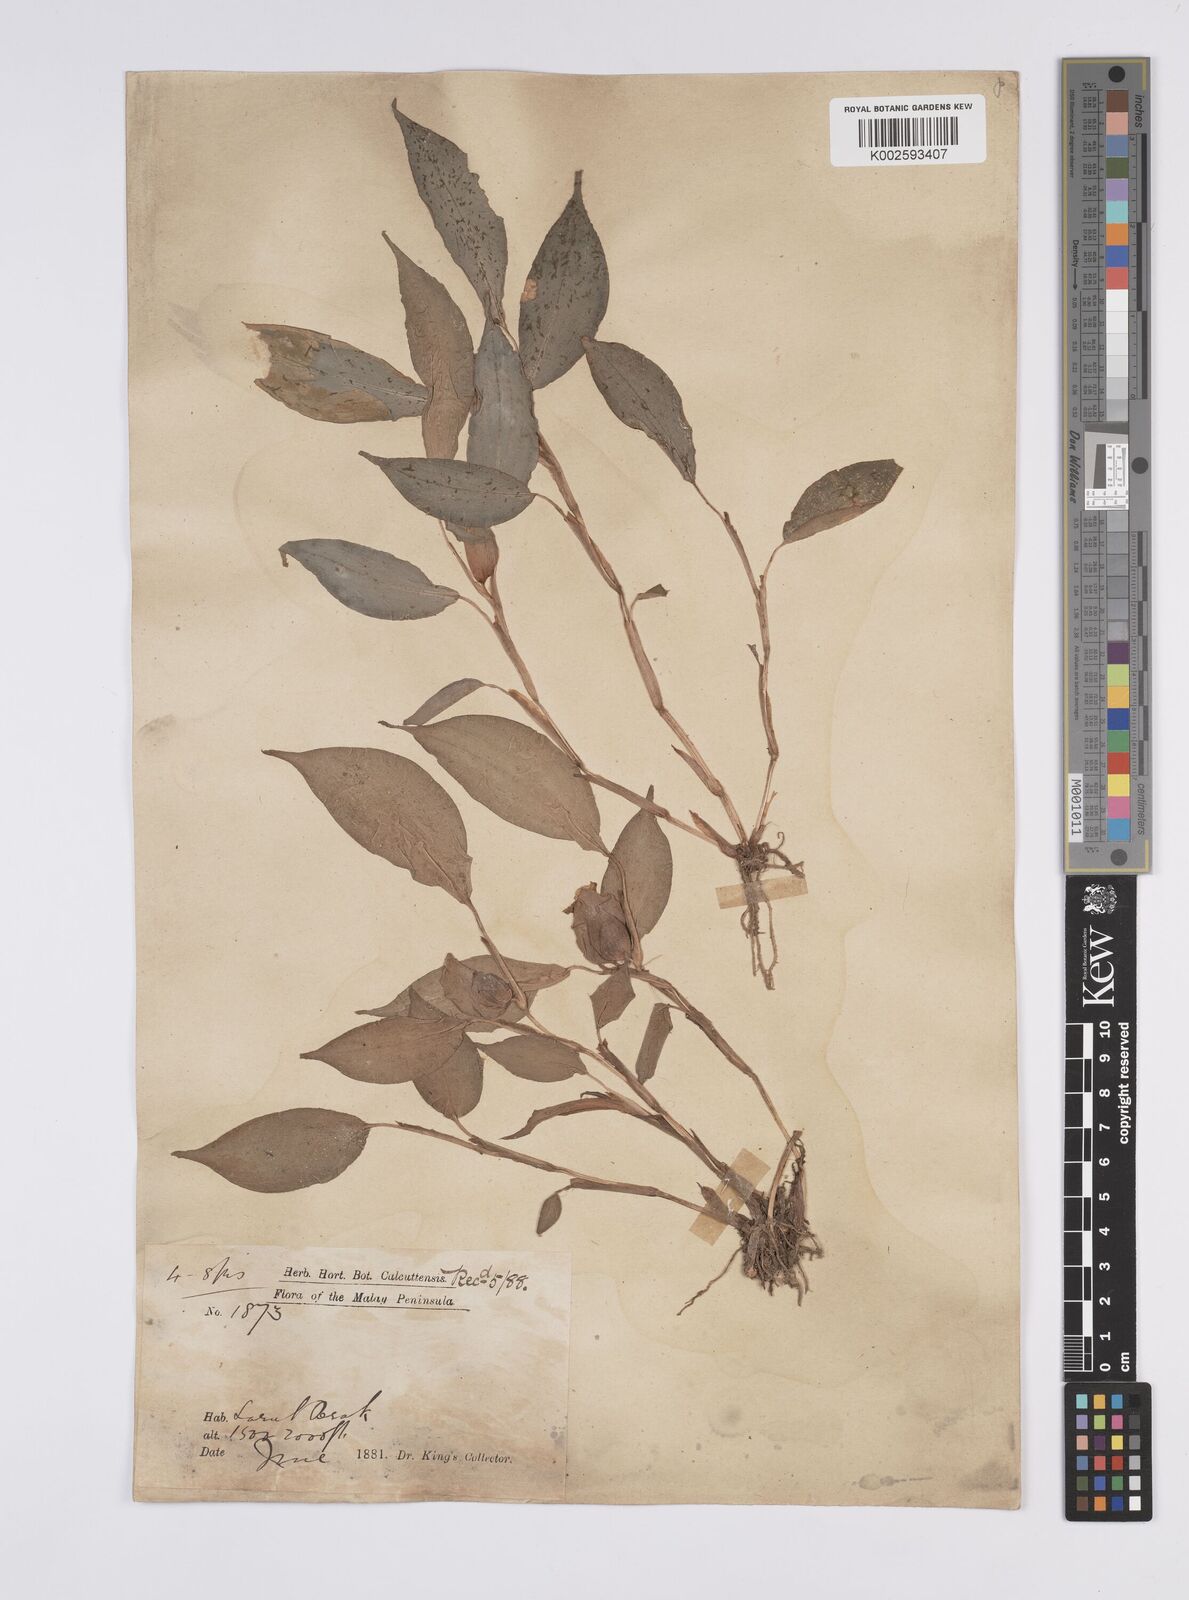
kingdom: Plantae
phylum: Tracheophyta
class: Liliopsida
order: Zingiberales
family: Zingiberaceae
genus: Camptandra
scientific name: Camptandra parvula
